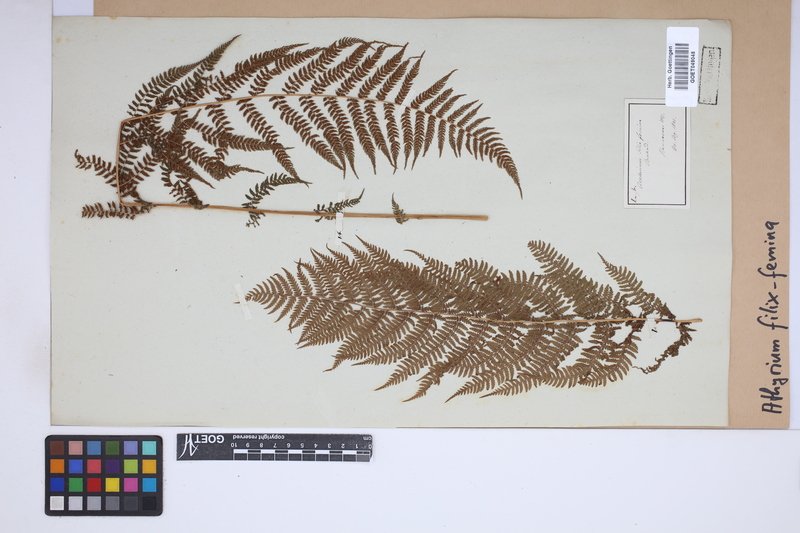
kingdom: Plantae
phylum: Tracheophyta
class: Polypodiopsida
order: Polypodiales
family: Athyriaceae
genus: Athyrium
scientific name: Athyrium filix-femina
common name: Lady fern
